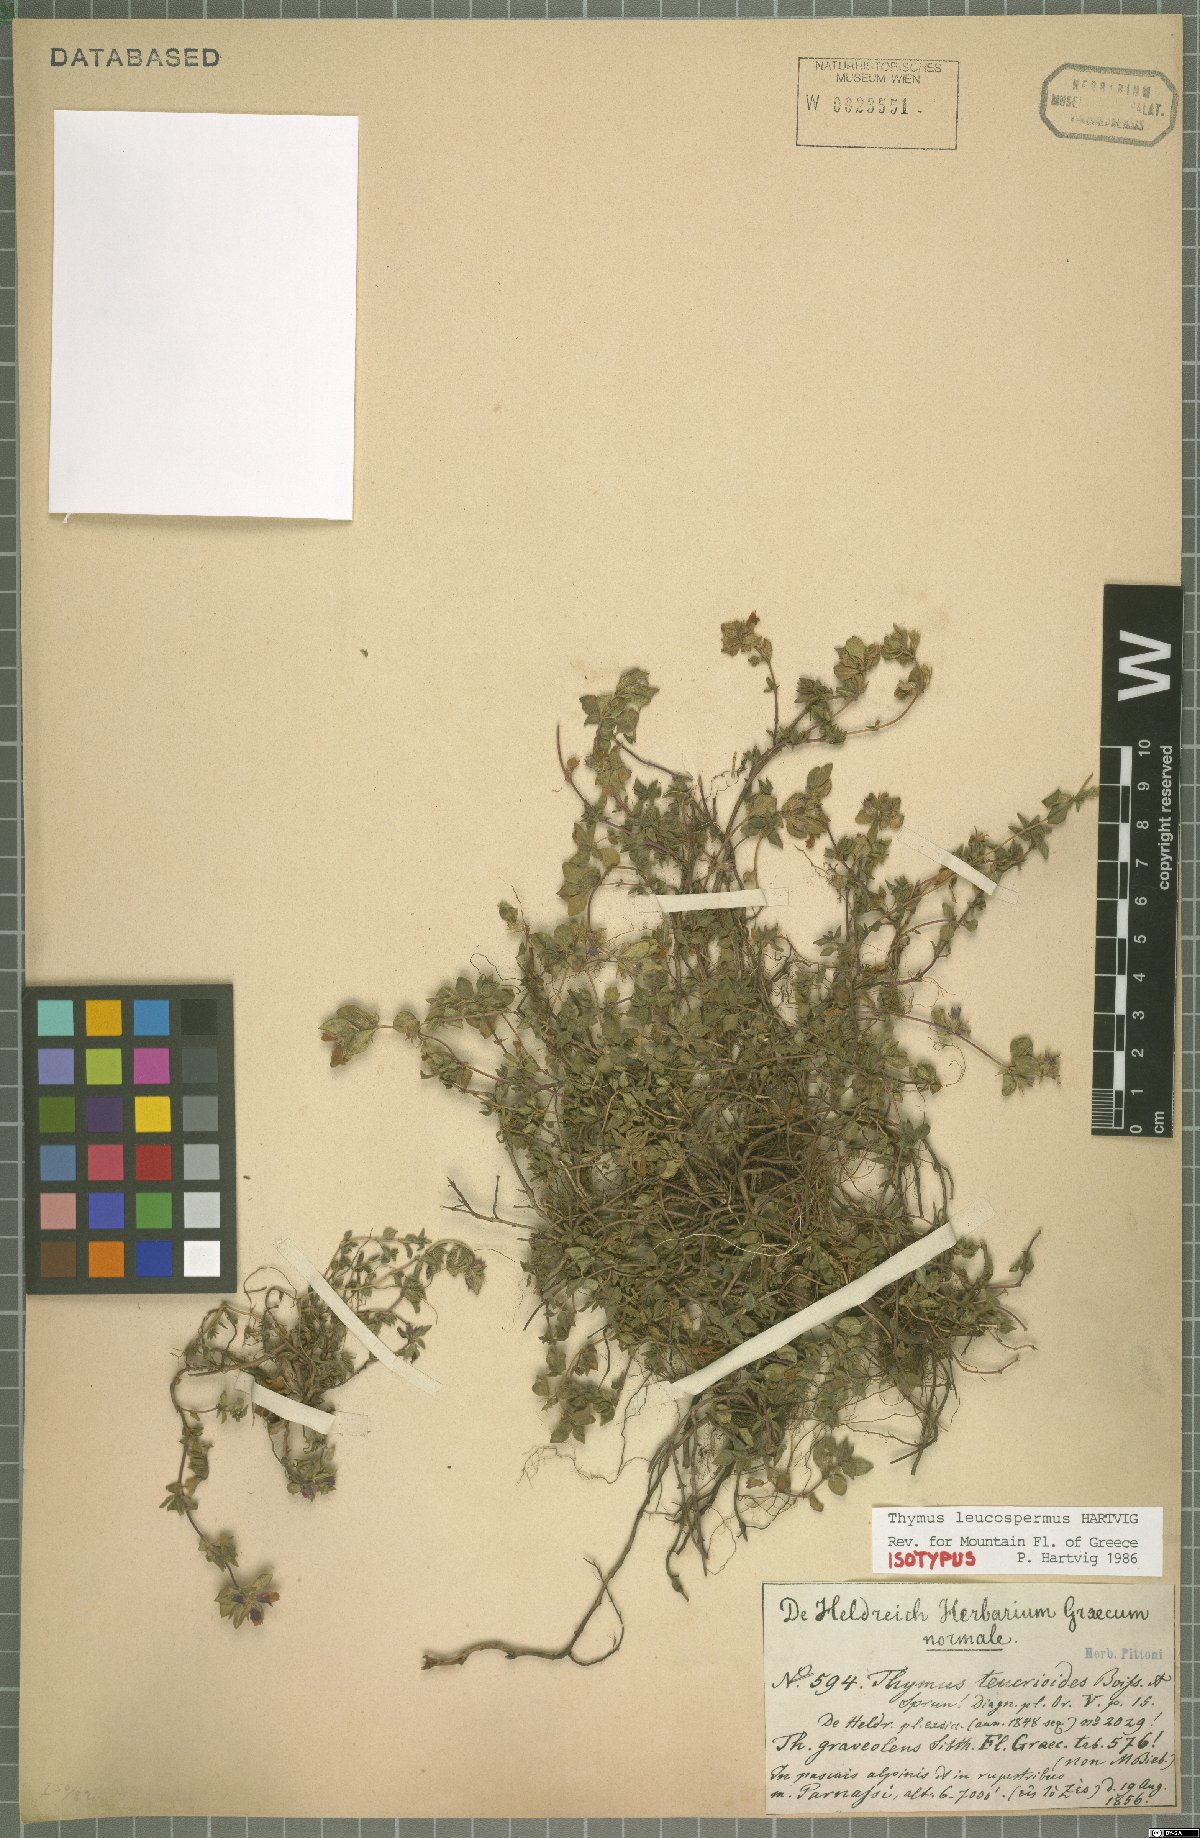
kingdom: Plantae
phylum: Tracheophyta
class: Magnoliopsida
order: Lamiales
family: Lamiaceae
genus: Thymus
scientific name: Thymus leucospermus
